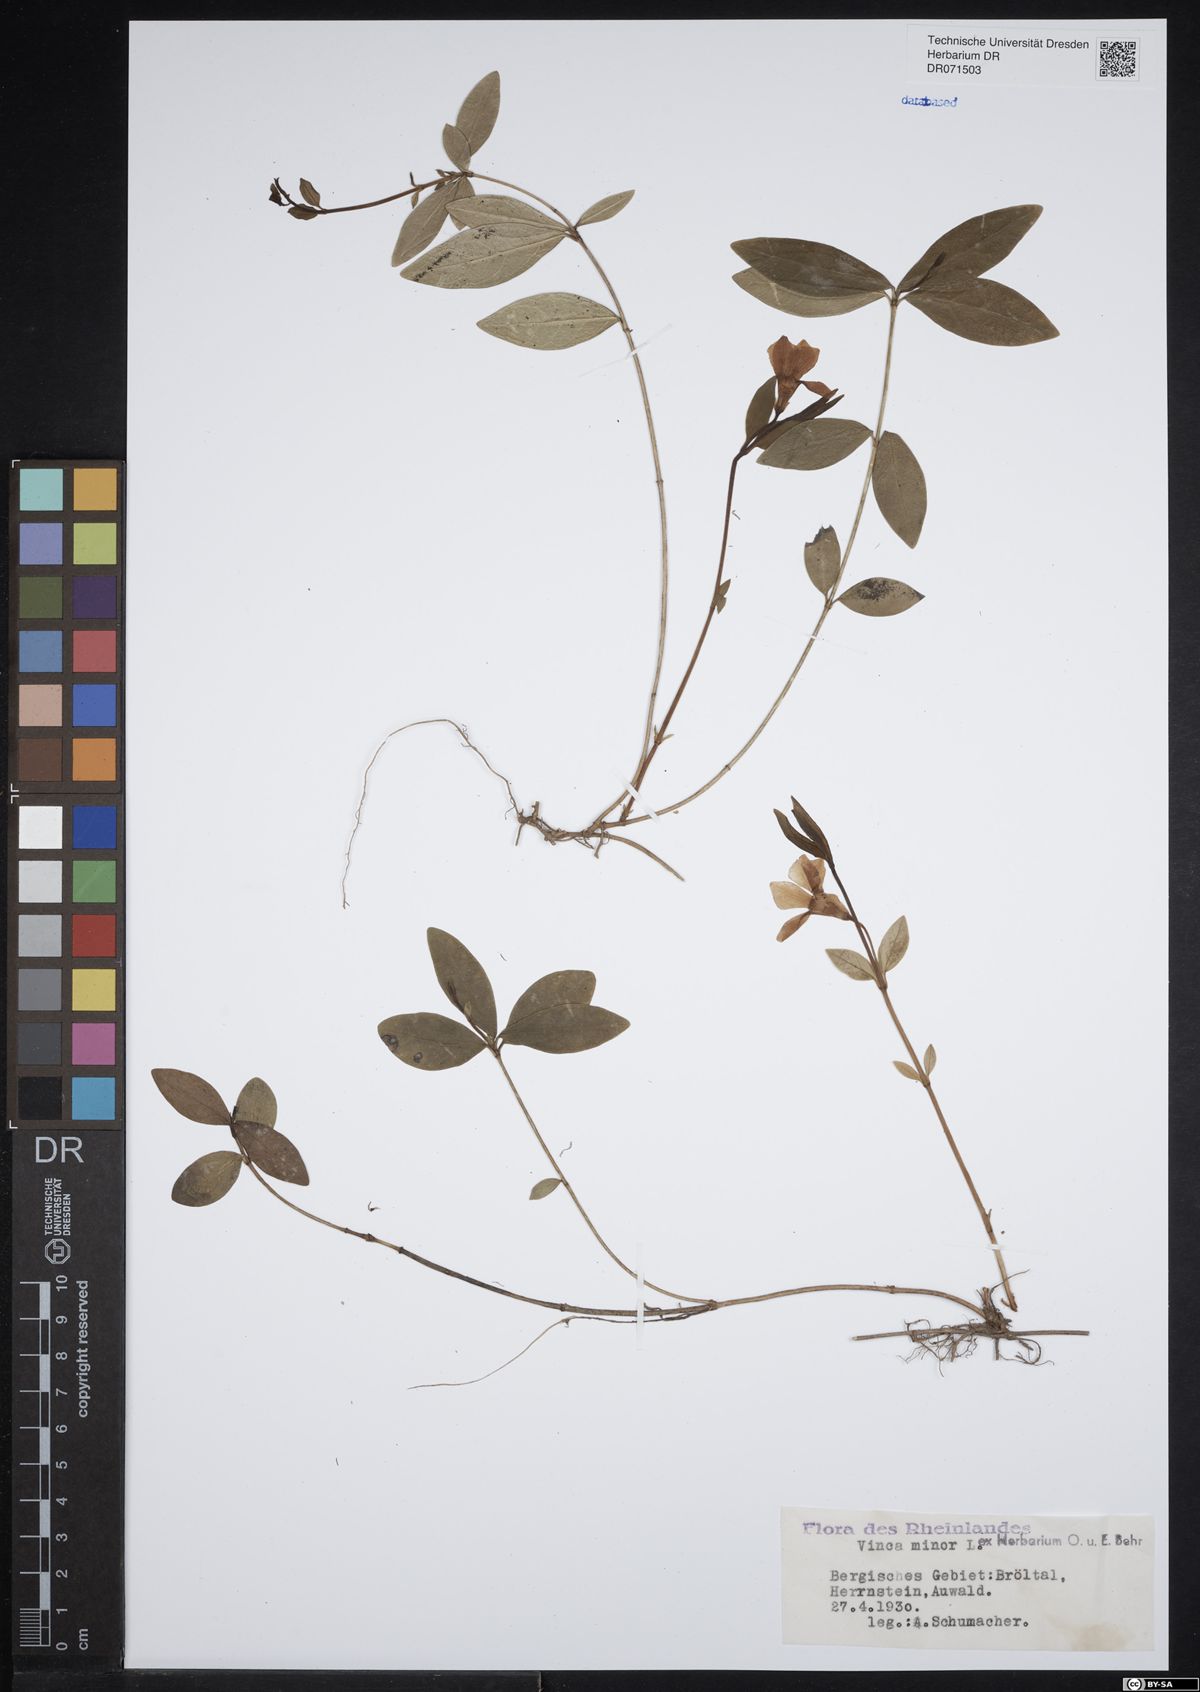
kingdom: Plantae
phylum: Tracheophyta
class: Magnoliopsida
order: Gentianales
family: Apocynaceae
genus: Vinca
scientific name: Vinca minor
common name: Lesser periwinkle
